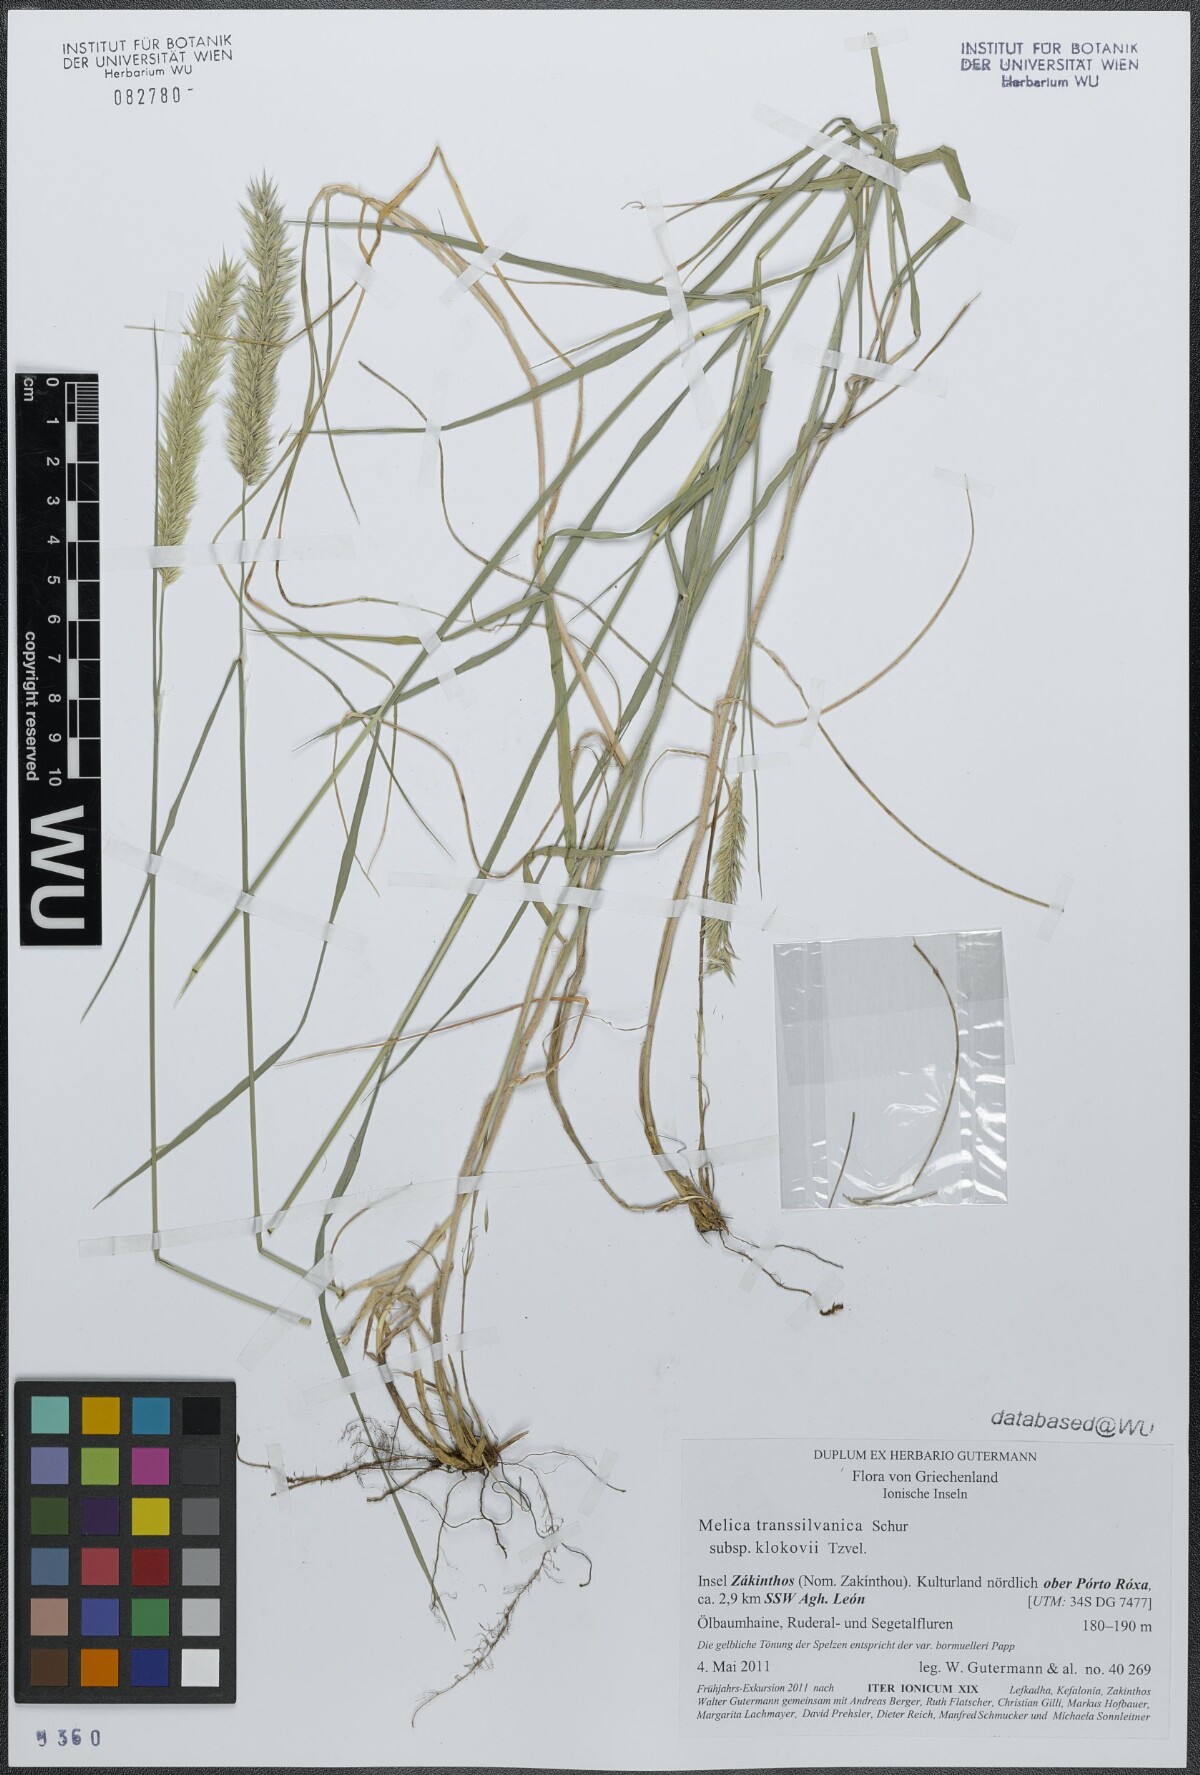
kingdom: Plantae
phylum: Tracheophyta
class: Liliopsida
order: Poales
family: Poaceae
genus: Melica
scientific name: Melica transsilvanica
